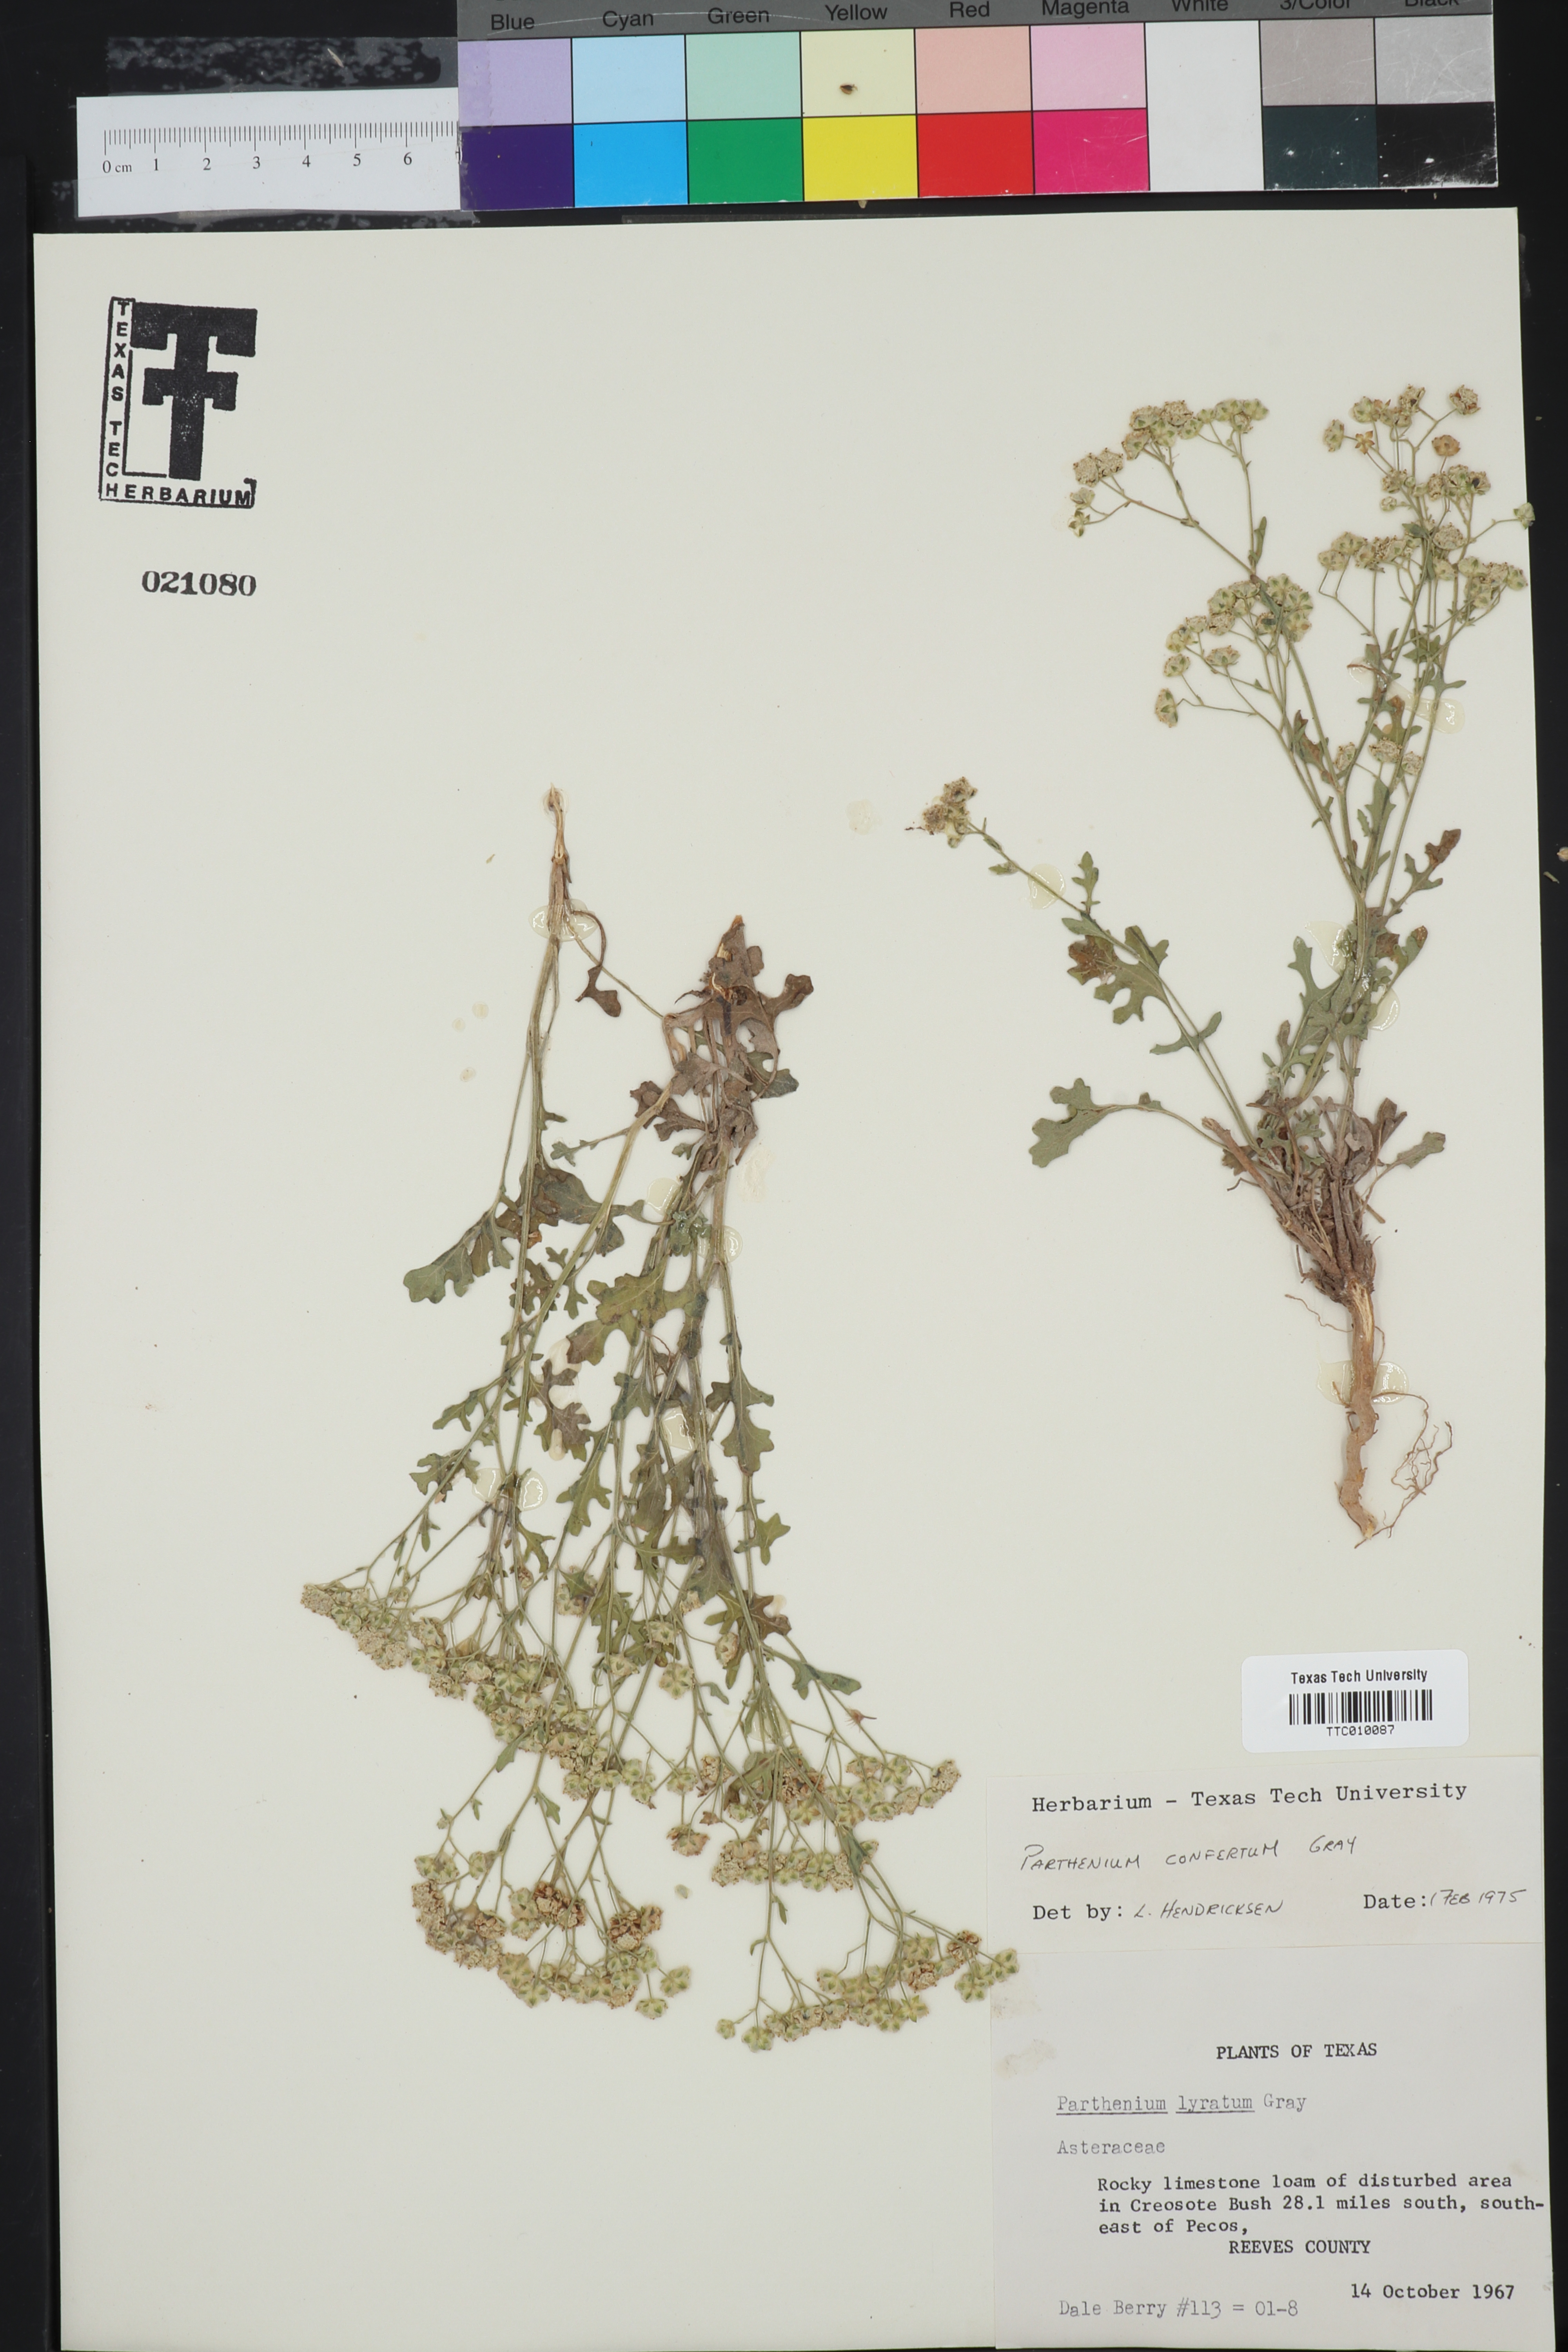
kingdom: Plantae
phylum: Tracheophyta
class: Magnoliopsida
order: Asterales
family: Asteraceae
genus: Parthenium
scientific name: Parthenium confertum
